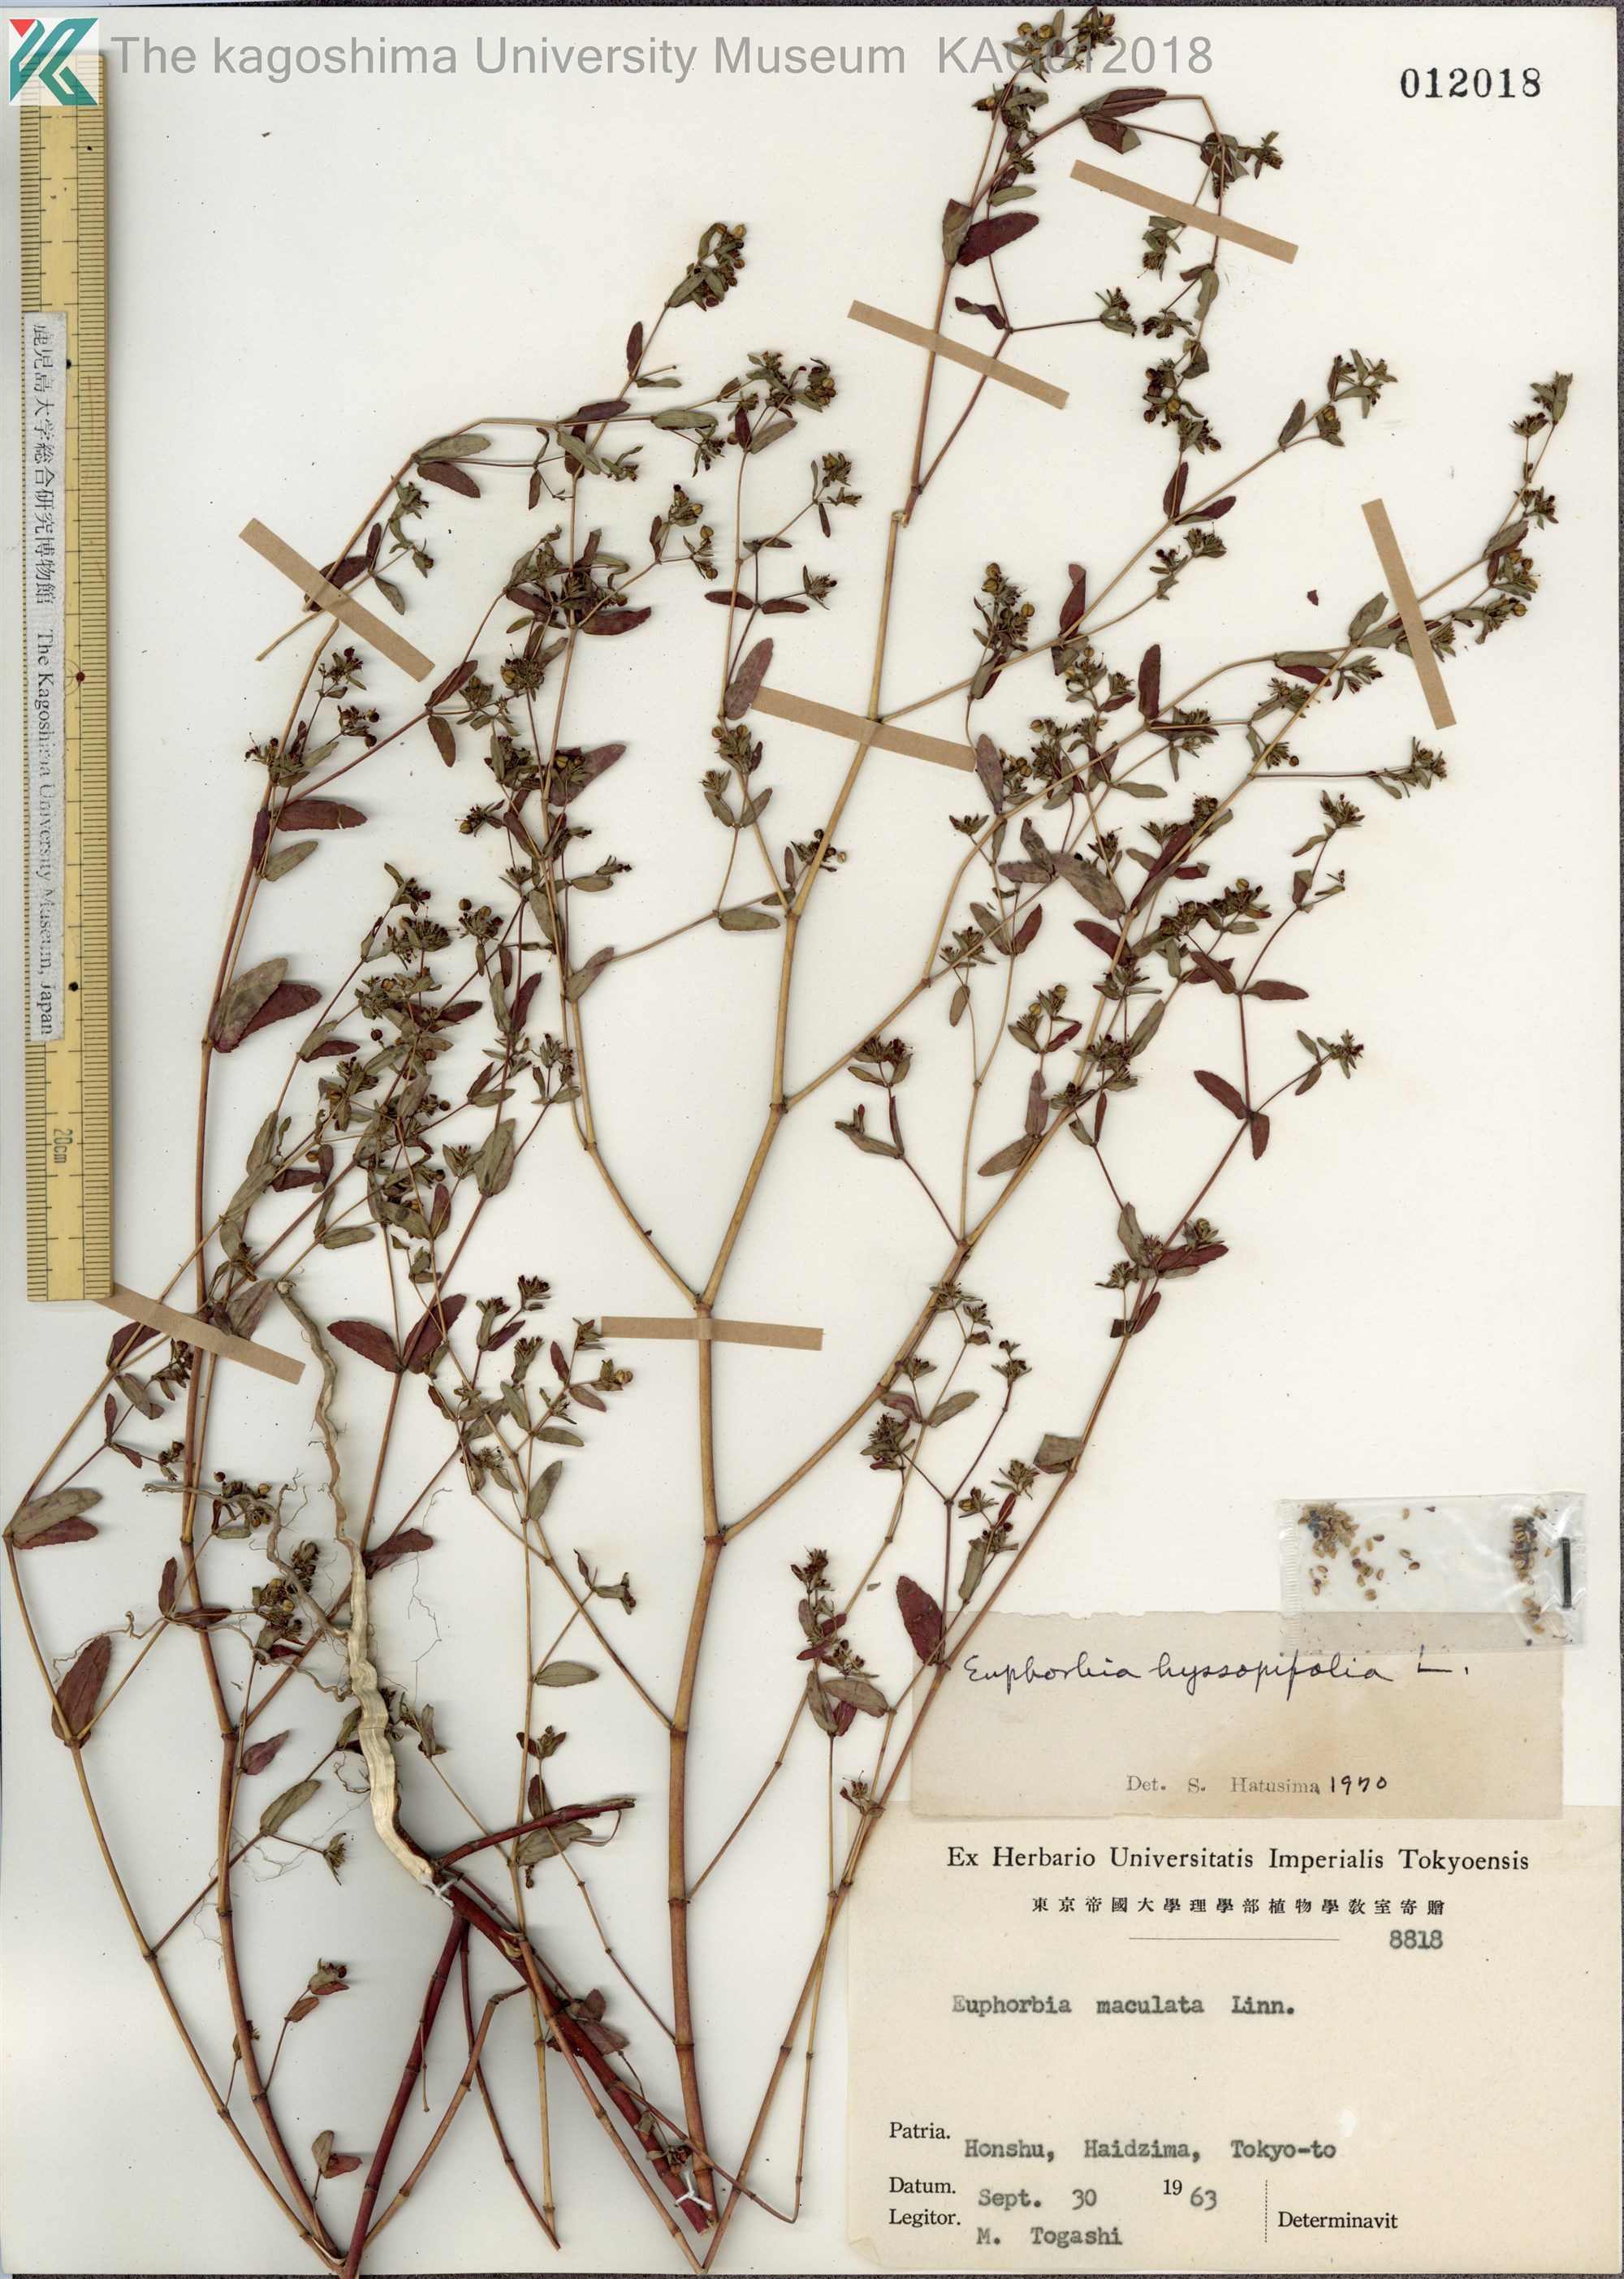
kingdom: Plantae
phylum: Tracheophyta
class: Magnoliopsida
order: Malpighiales
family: Euphorbiaceae
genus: Euphorbia
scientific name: Euphorbia hyssopifolia
